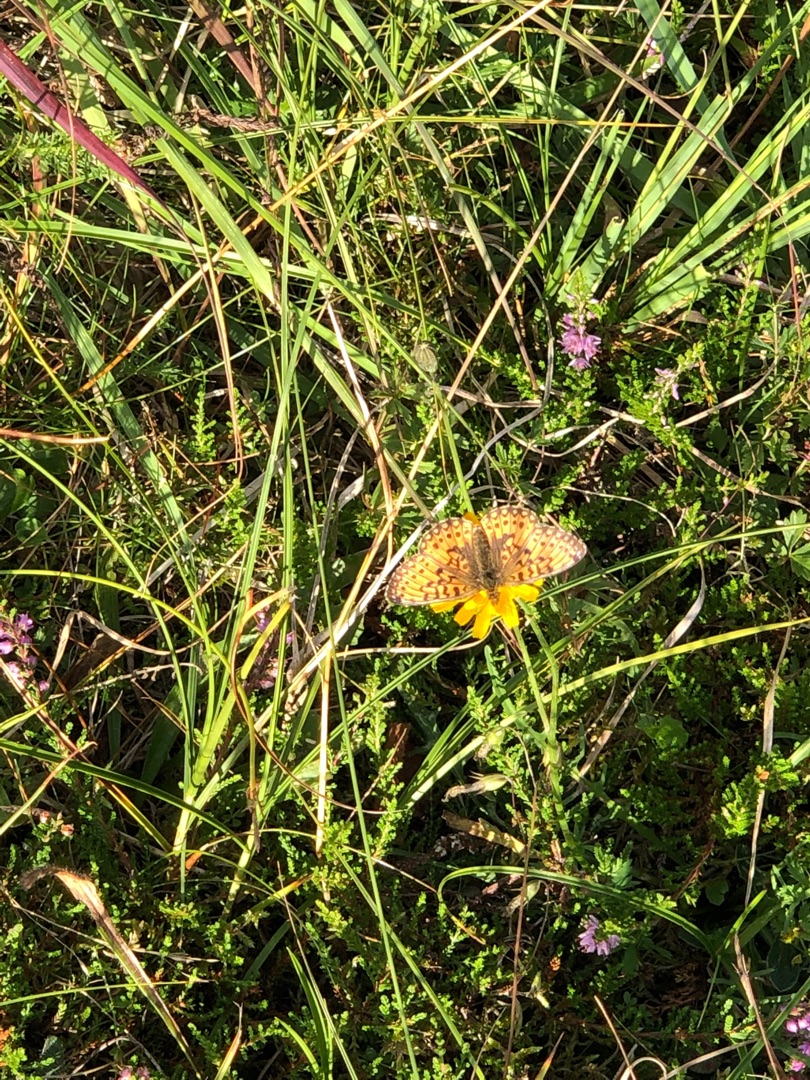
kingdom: Animalia
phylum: Arthropoda
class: Insecta
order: Lepidoptera
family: Nymphalidae
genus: Boloria
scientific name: Boloria selene
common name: Brunlig perlemorsommerfugl
